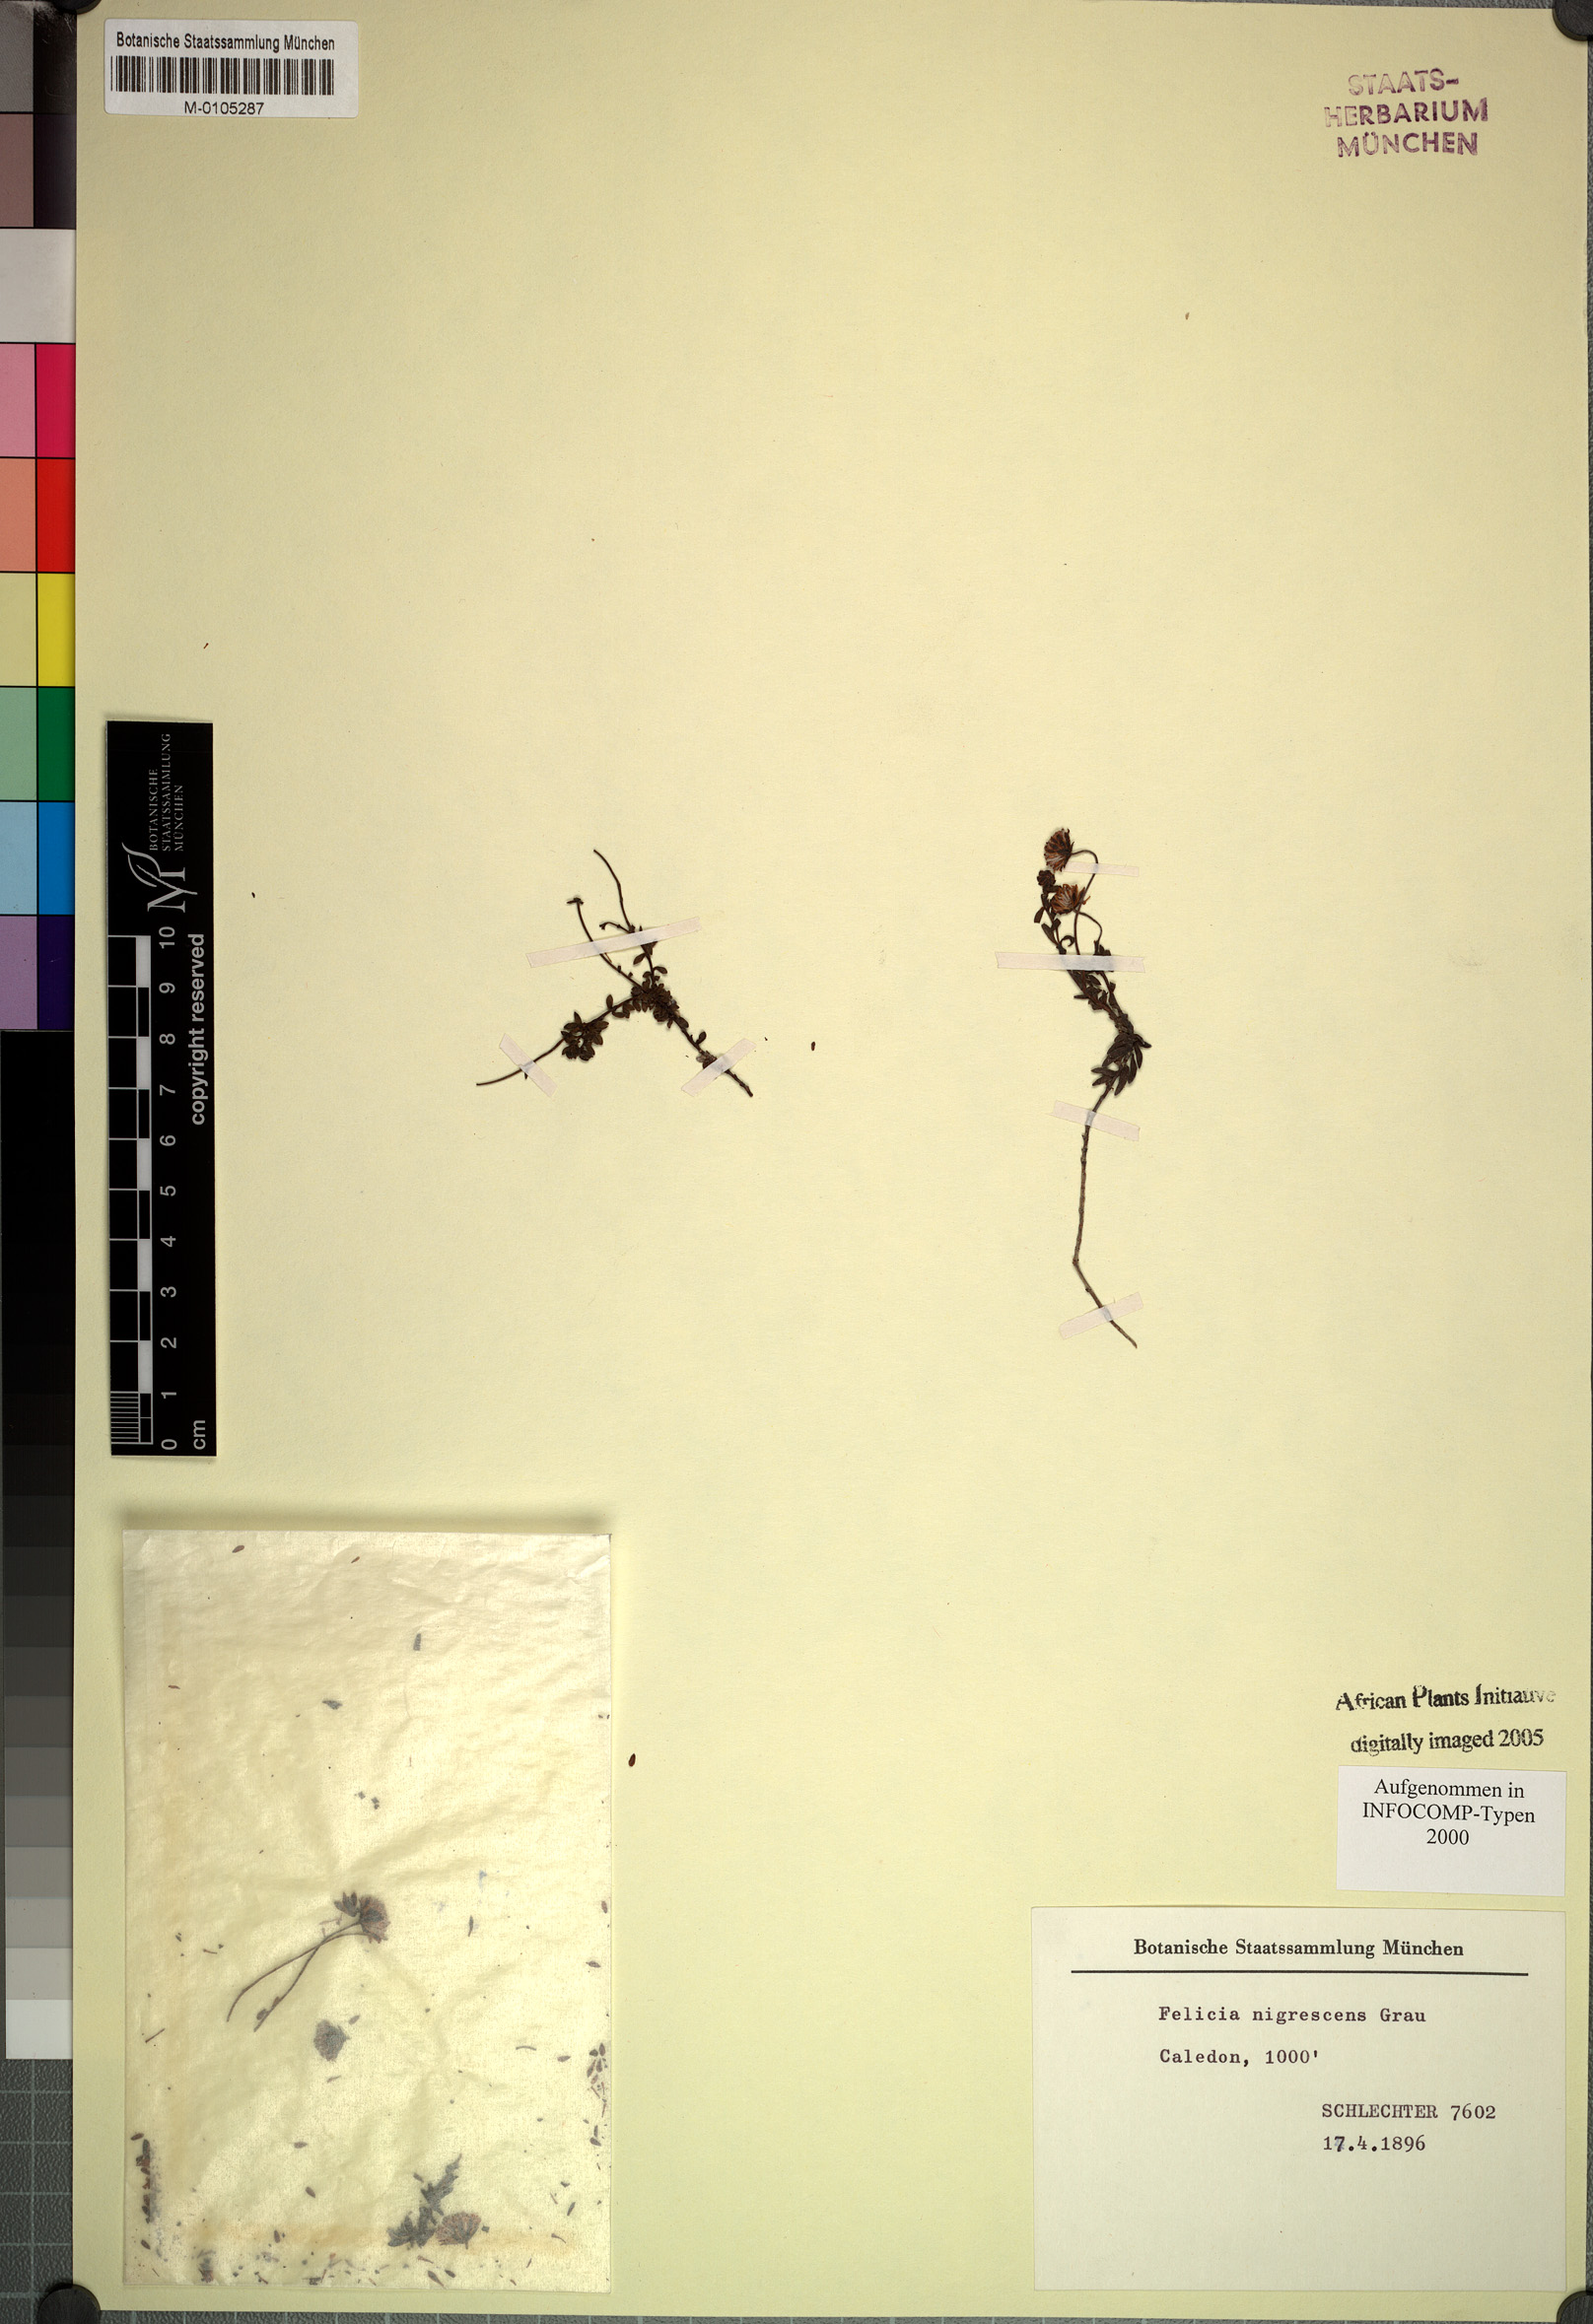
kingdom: Plantae
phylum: Tracheophyta
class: Magnoliopsida
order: Asterales
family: Asteraceae
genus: Felicia
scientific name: Felicia nigrescens
